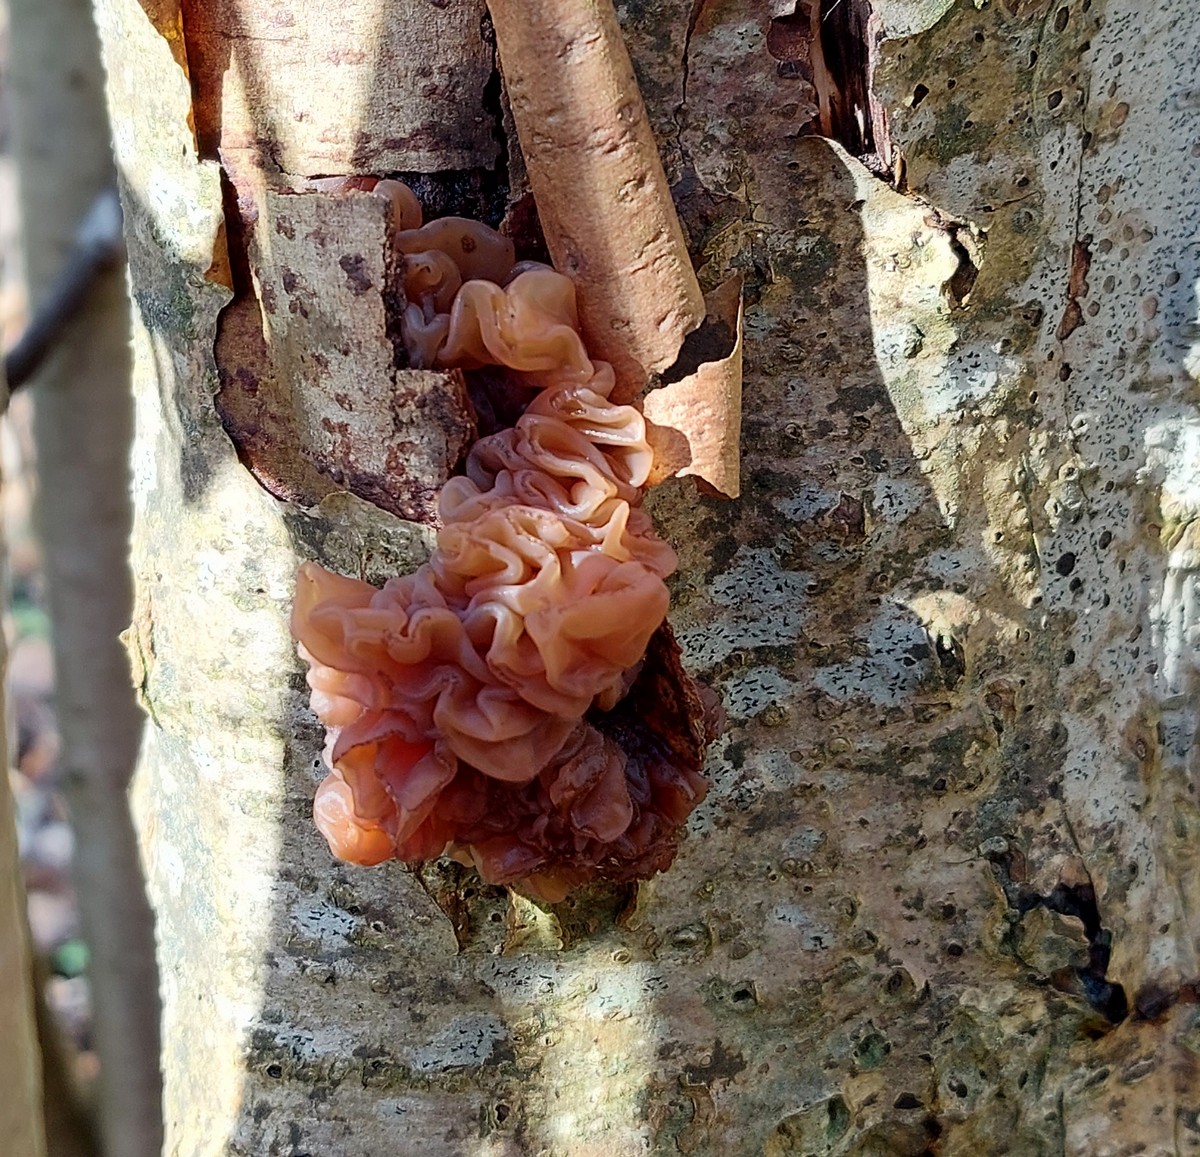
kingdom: Fungi
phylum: Basidiomycota
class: Tremellomycetes
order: Tremellales
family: Tremellaceae
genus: Phaeotremella
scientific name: Phaeotremella frondosa
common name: kæmpe-bævresvamp
